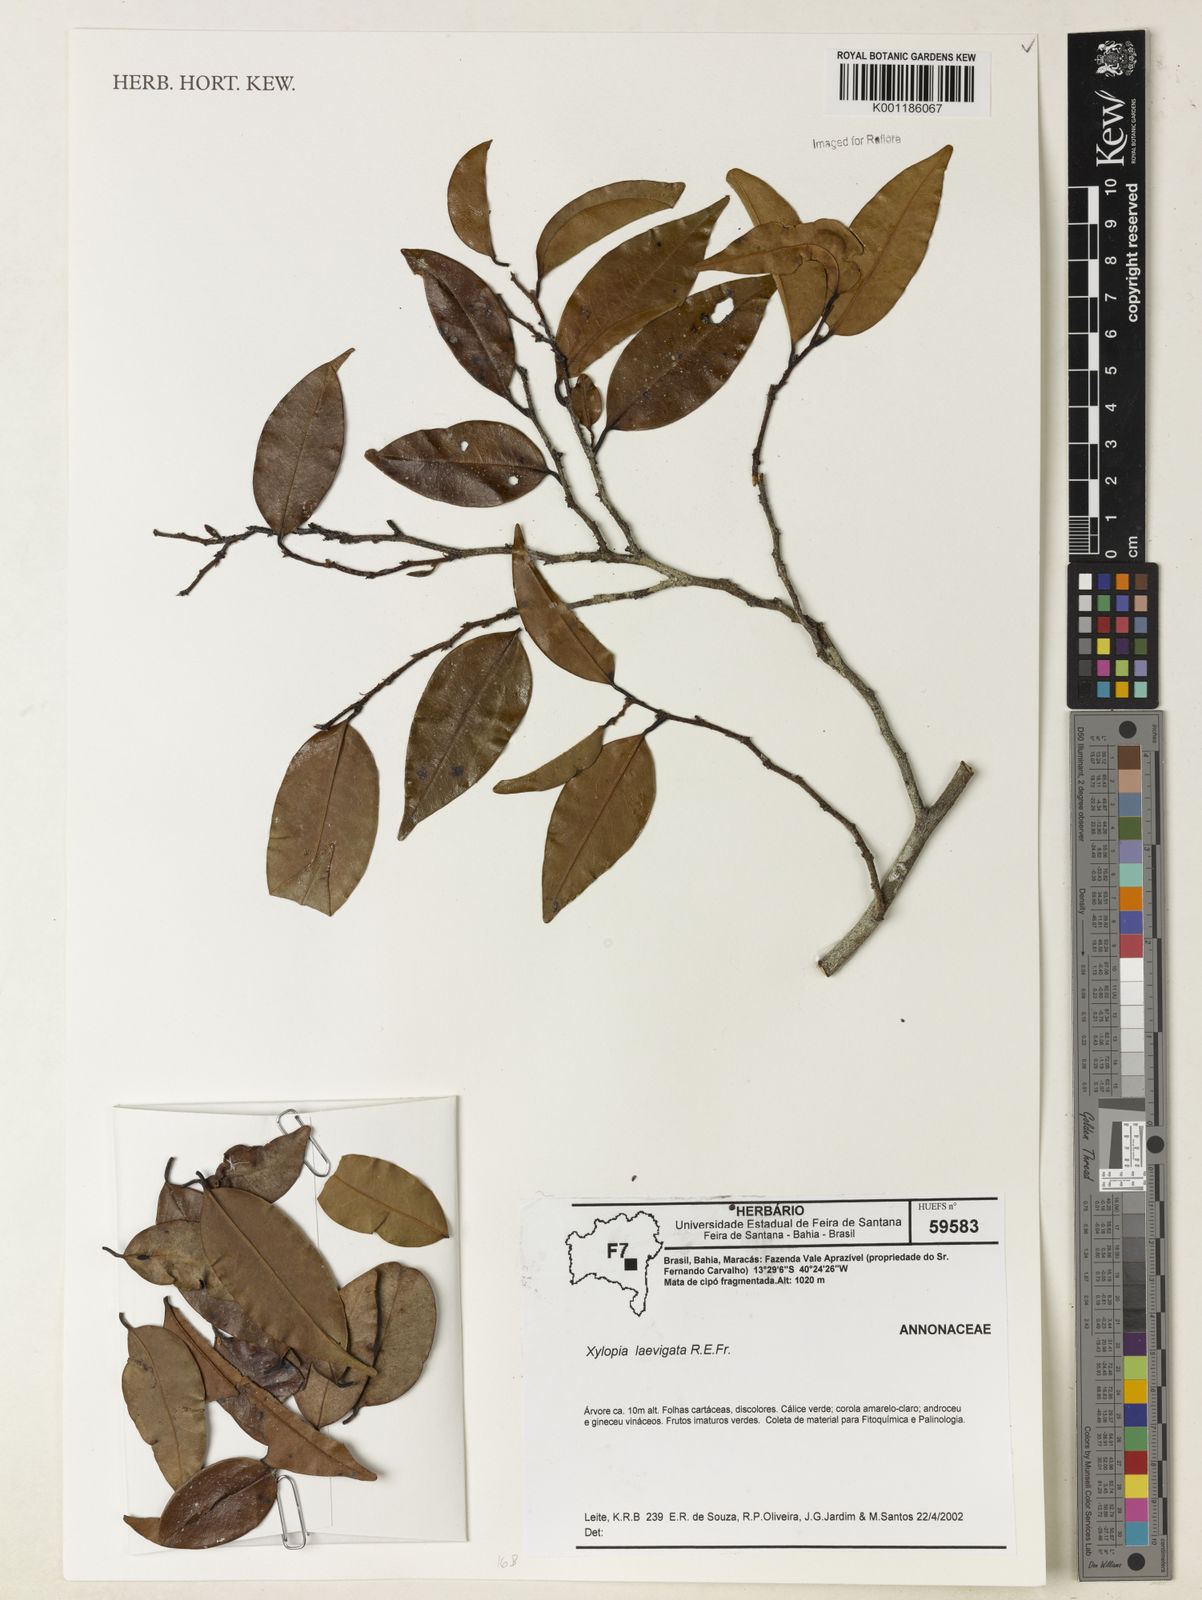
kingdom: Plantae
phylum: Tracheophyta
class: Magnoliopsida
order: Magnoliales
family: Annonaceae
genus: Xylopia
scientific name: Xylopia laevigata
